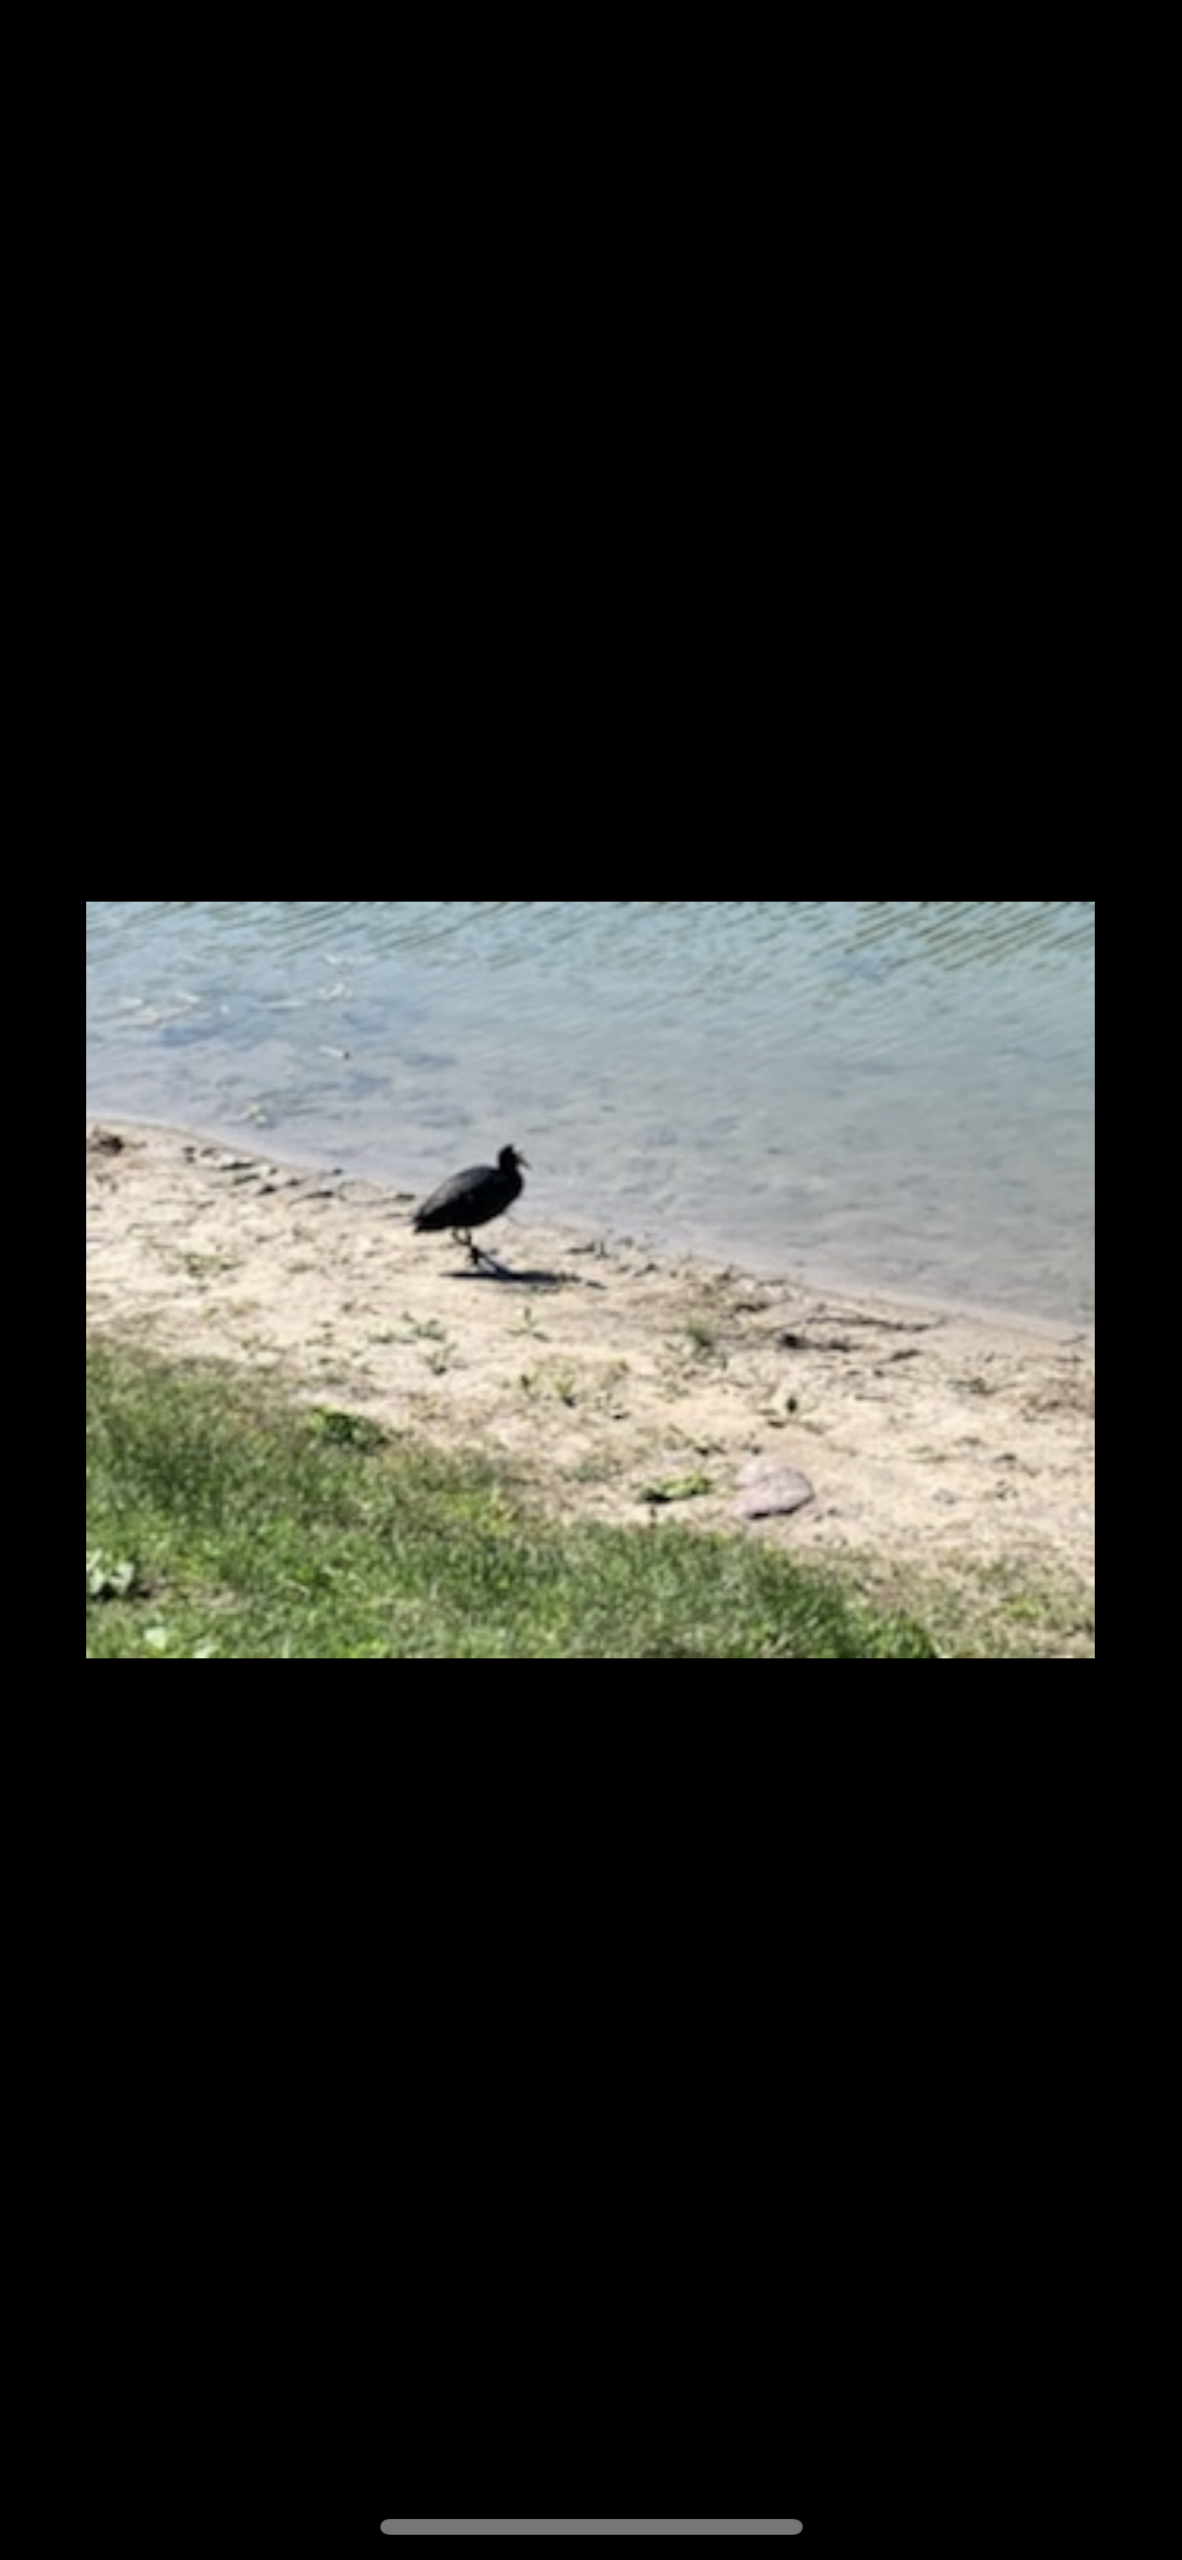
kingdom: Animalia
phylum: Chordata
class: Aves
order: Gruiformes
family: Rallidae
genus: Fulica
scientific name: Fulica atra
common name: Blishøne
